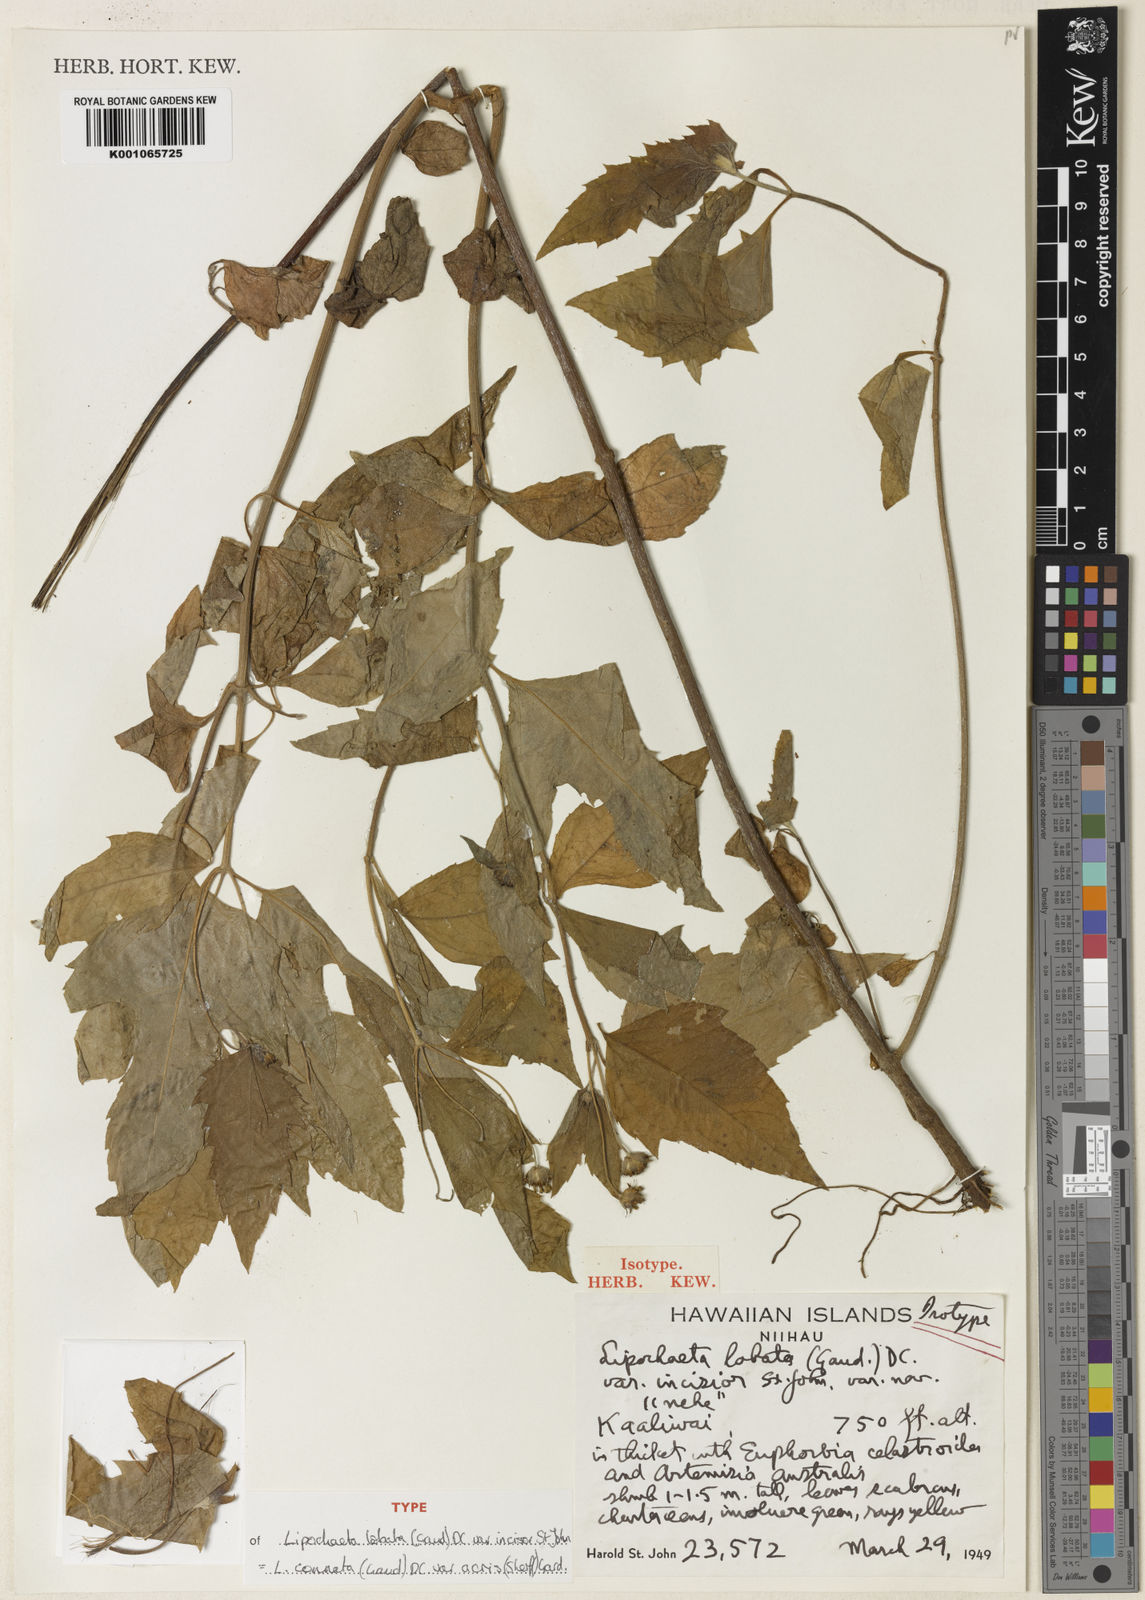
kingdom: Plantae
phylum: Tracheophyta
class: Magnoliopsida
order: Asterales
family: Asteraceae
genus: Lipochaeta
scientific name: Lipochaeta connata
